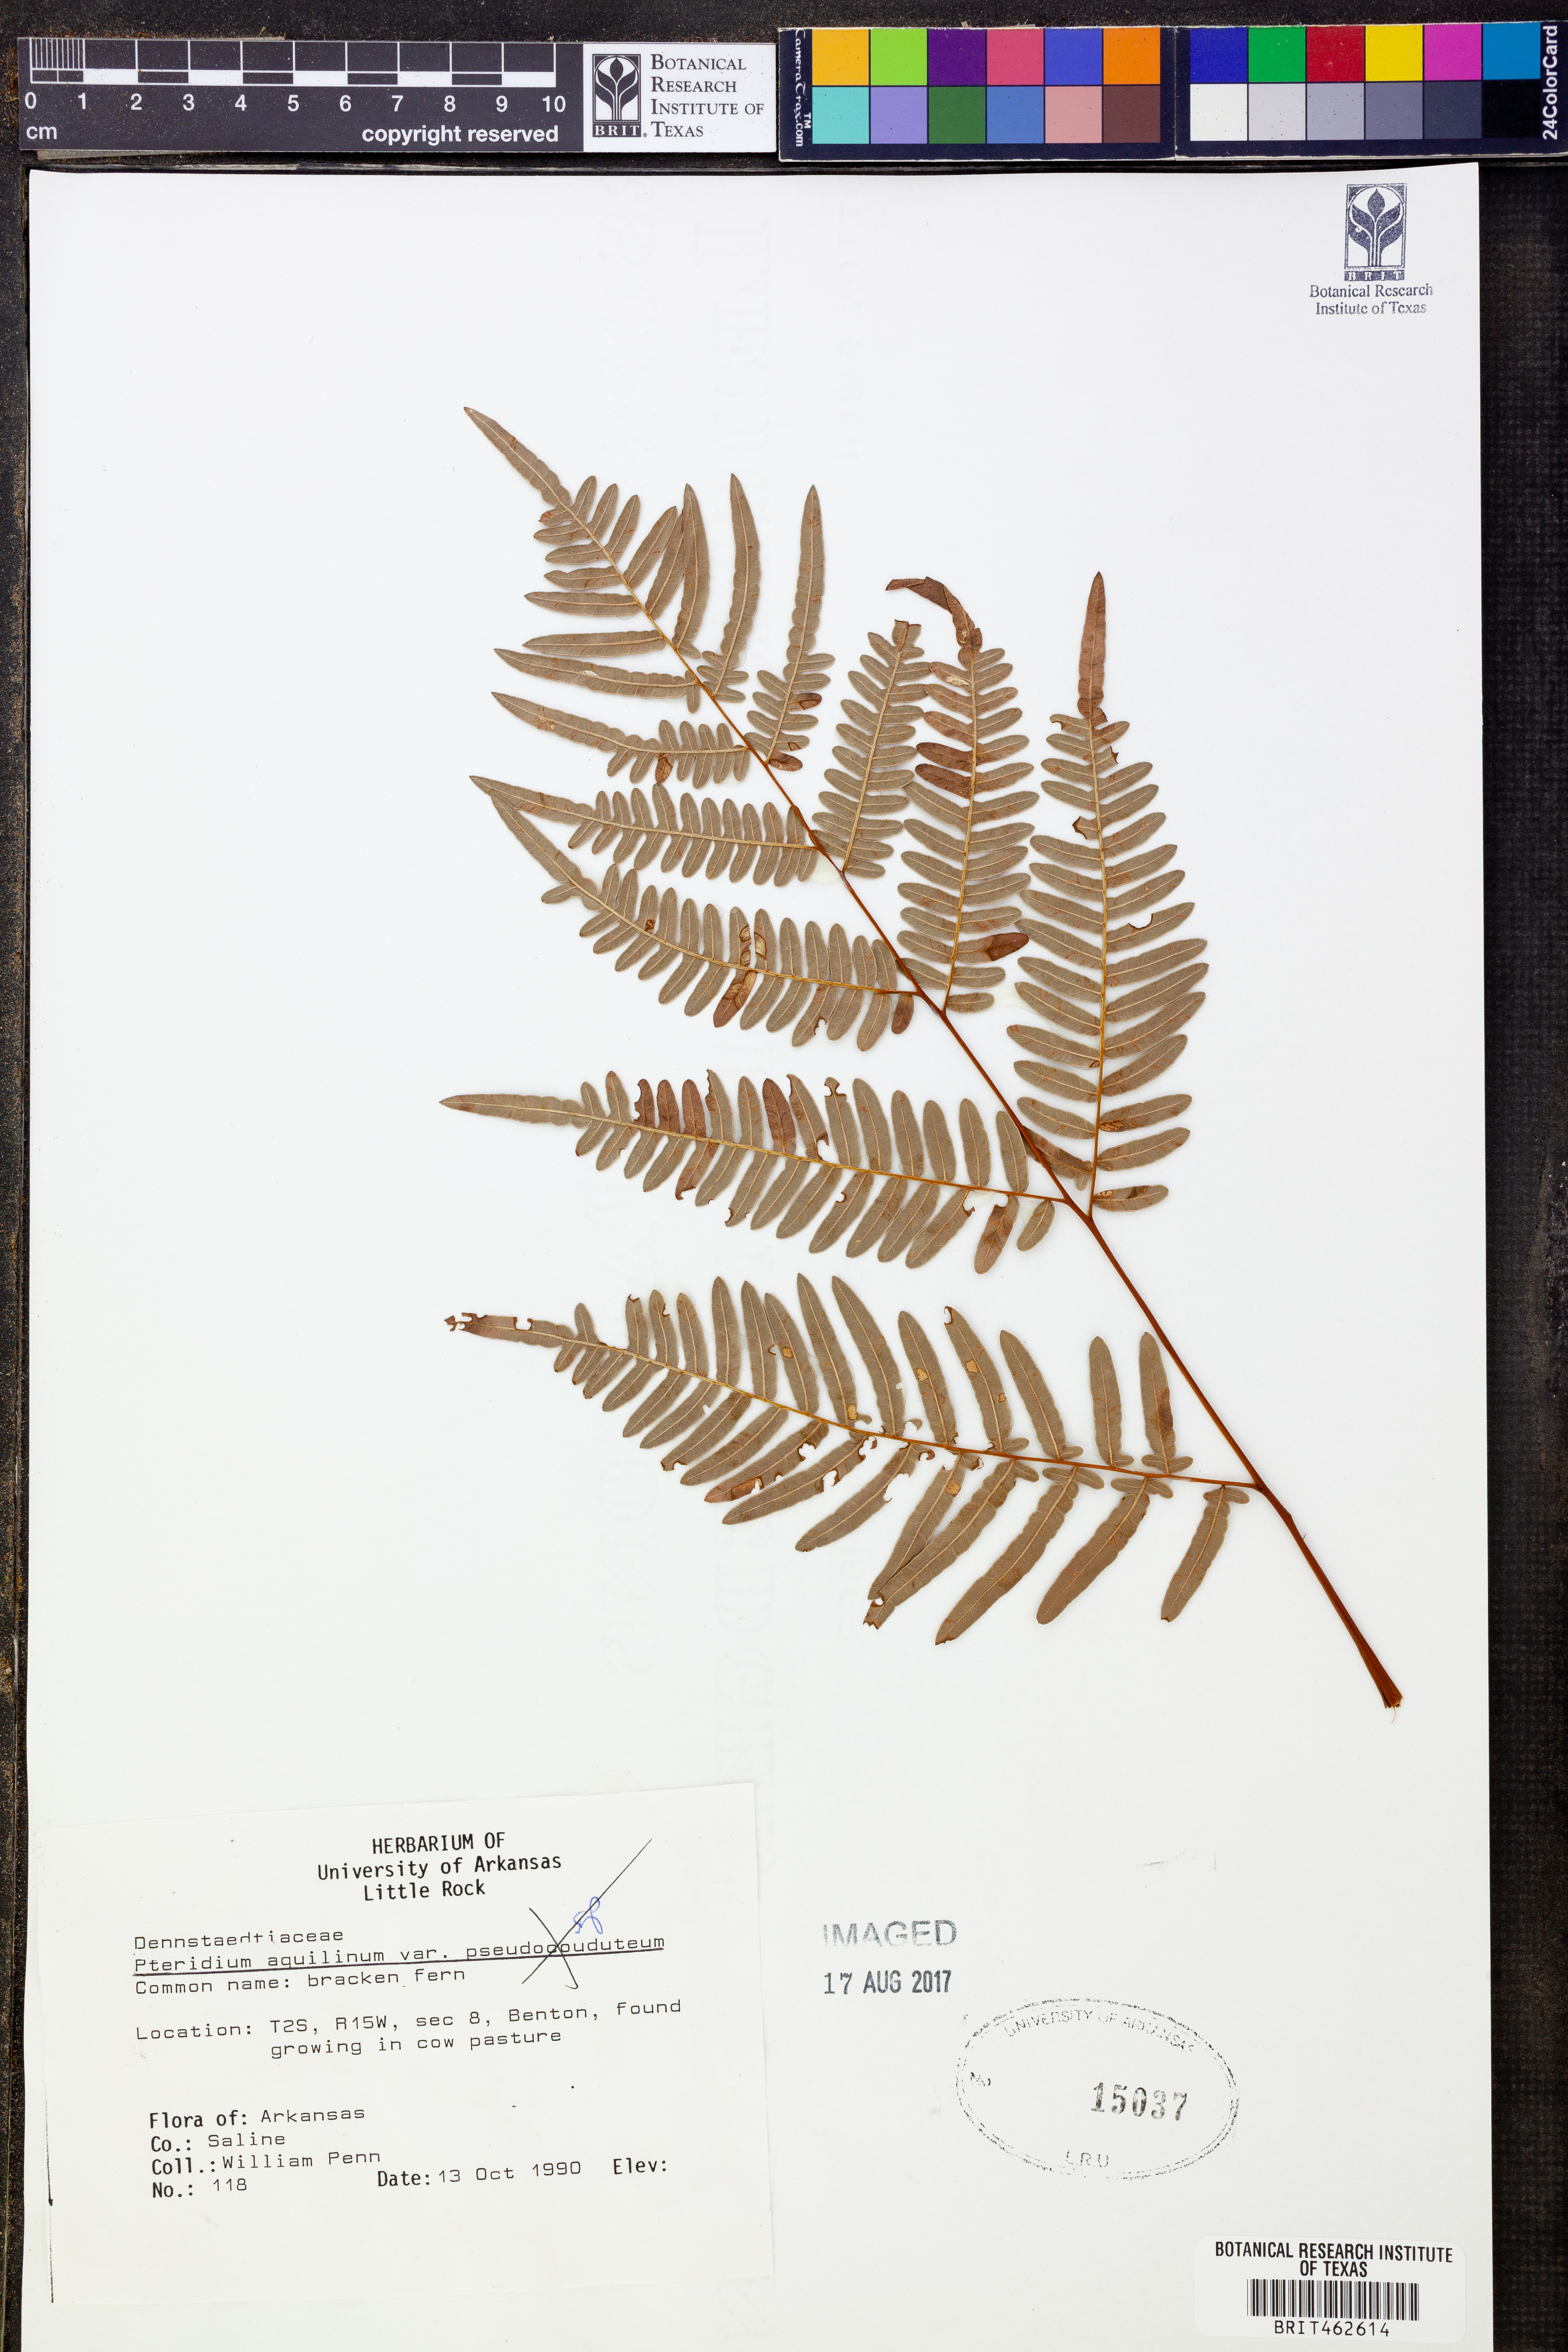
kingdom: Plantae
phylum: Tracheophyta
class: Polypodiopsida
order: Polypodiales
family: Dennstaedtiaceae
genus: Pteridium
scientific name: Pteridium aquilinum
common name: Bracken
